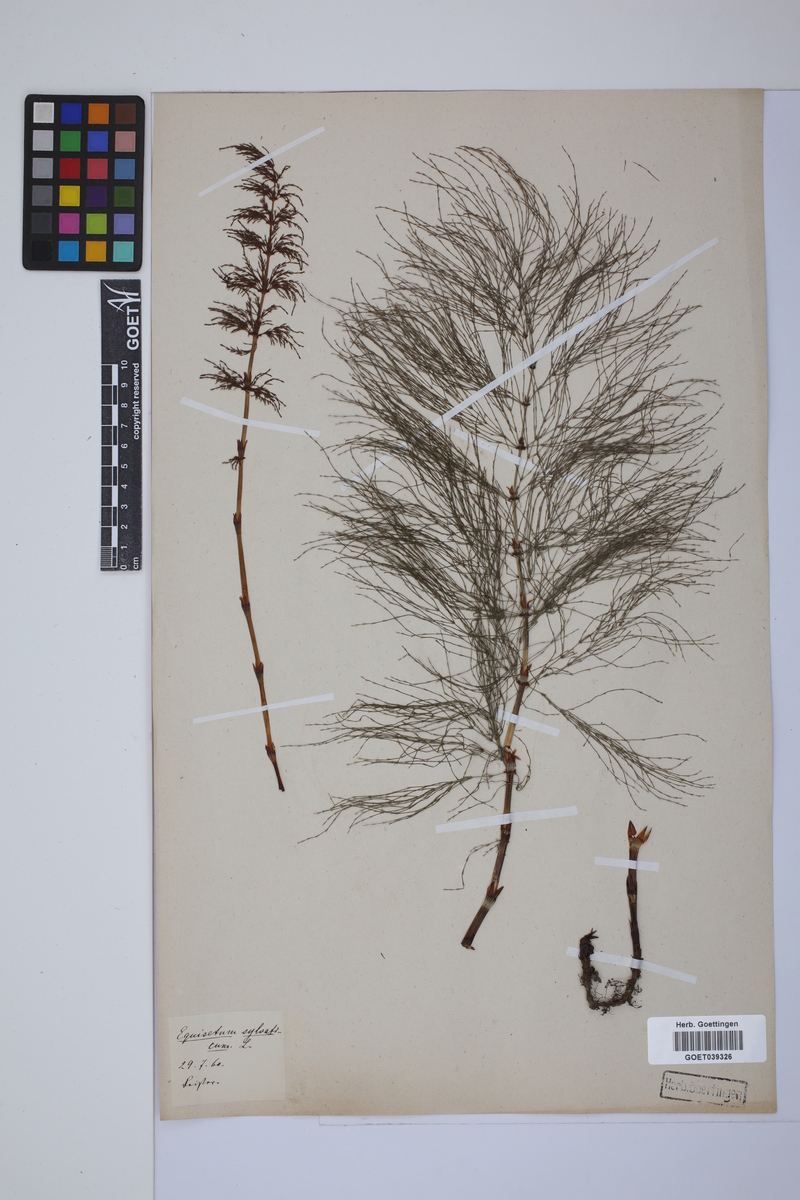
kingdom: Plantae
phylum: Tracheophyta
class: Polypodiopsida
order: Equisetales
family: Equisetaceae
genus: Equisetum
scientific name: Equisetum sylvaticum
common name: Wood horsetail
